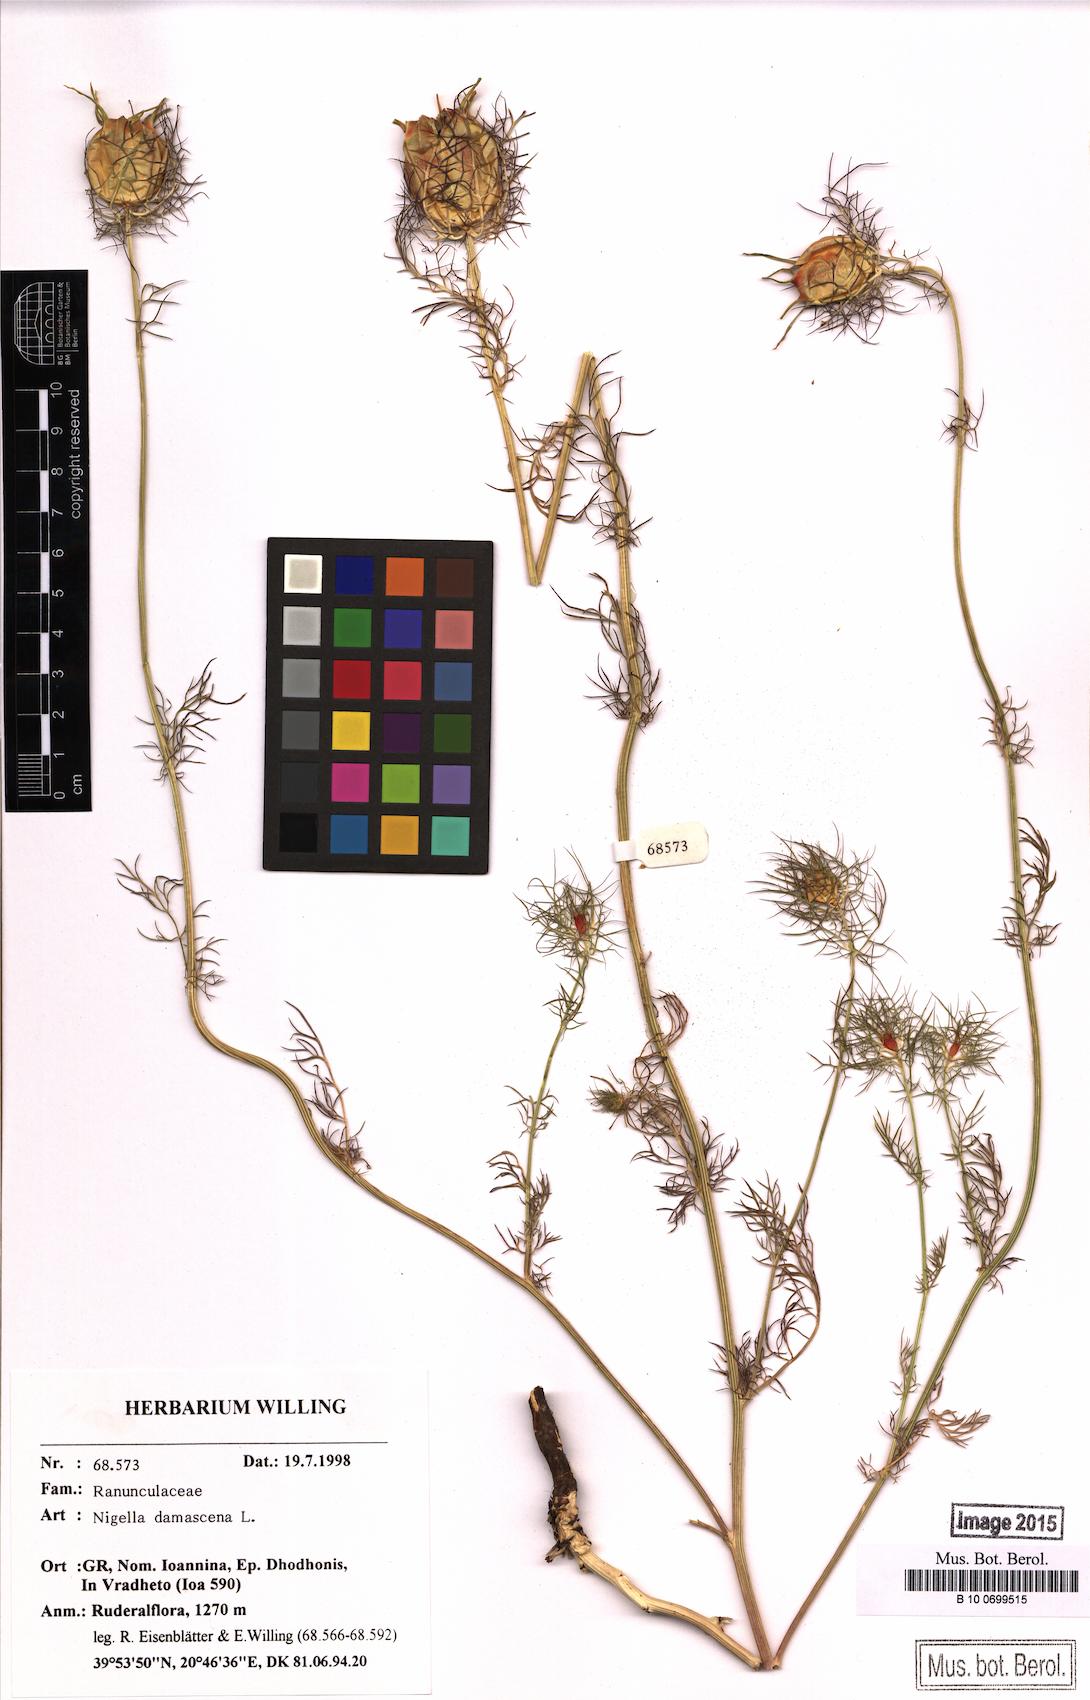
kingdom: Plantae
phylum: Tracheophyta
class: Magnoliopsida
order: Ranunculales
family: Ranunculaceae
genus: Nigella
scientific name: Nigella damascena
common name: Love-in-a-mist
